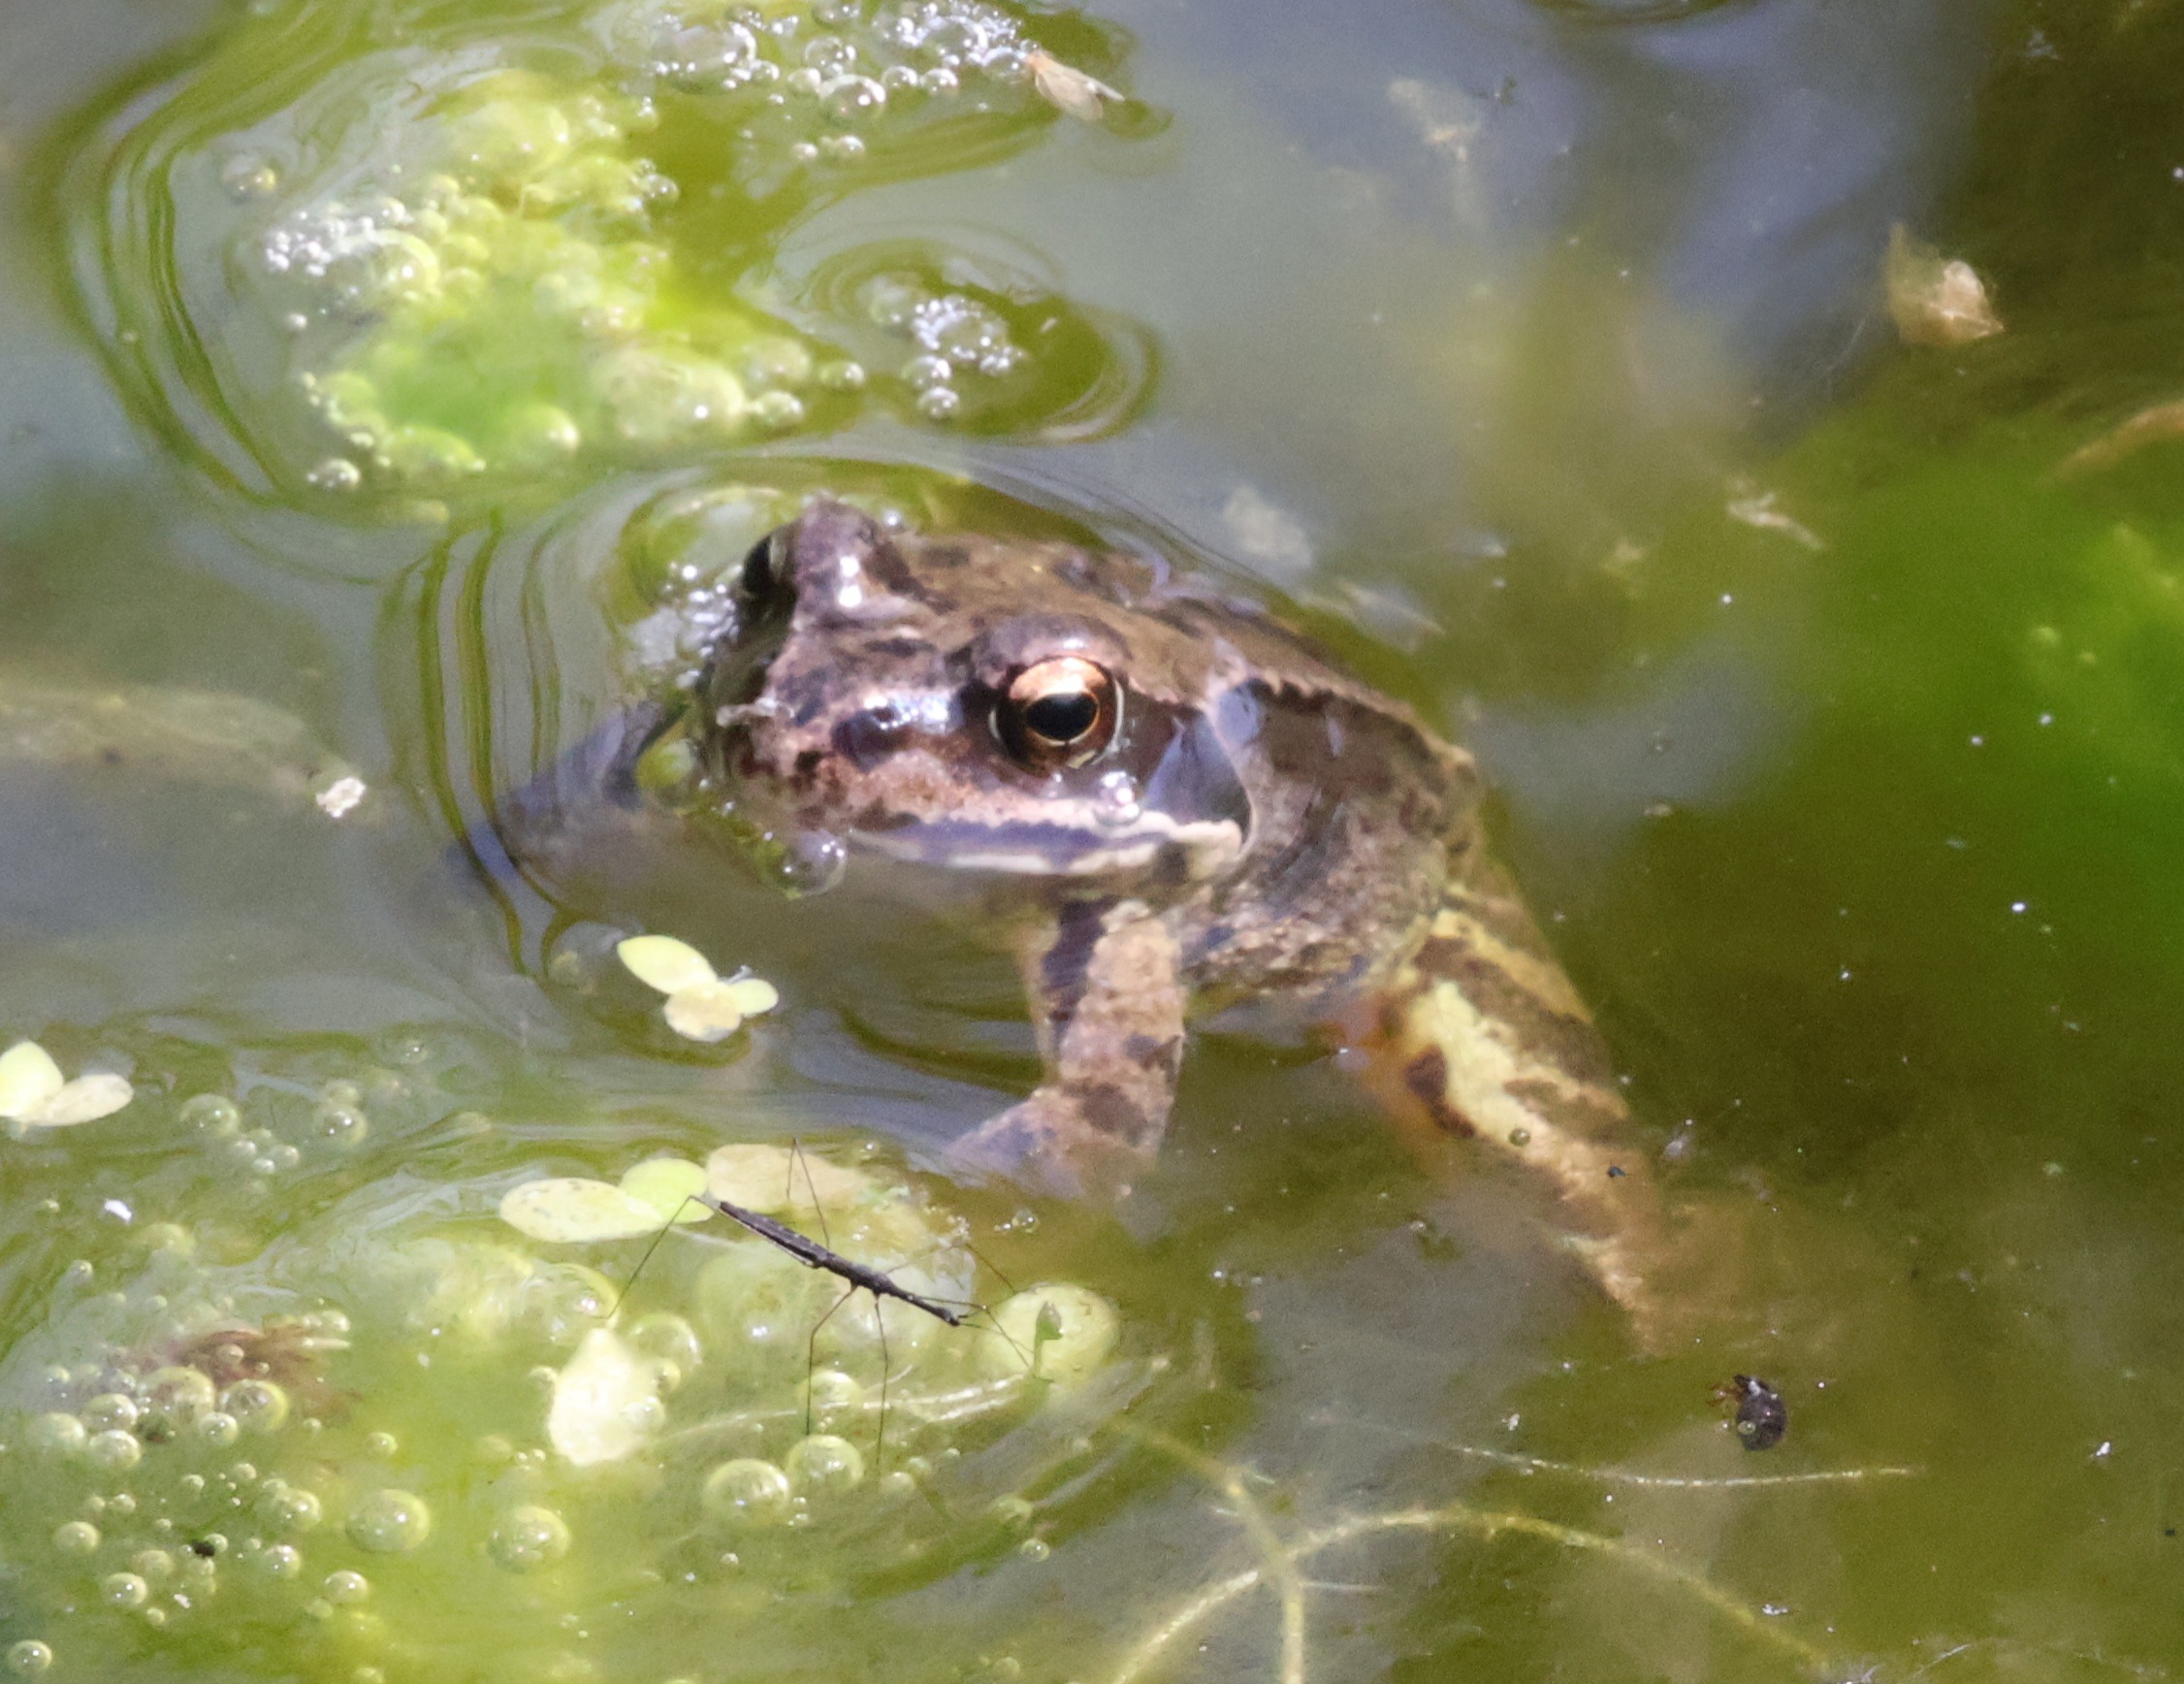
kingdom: Animalia
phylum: Chordata
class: Amphibia
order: Anura
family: Ranidae
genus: Rana
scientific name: Rana temporaria
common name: Butsnudet frø
